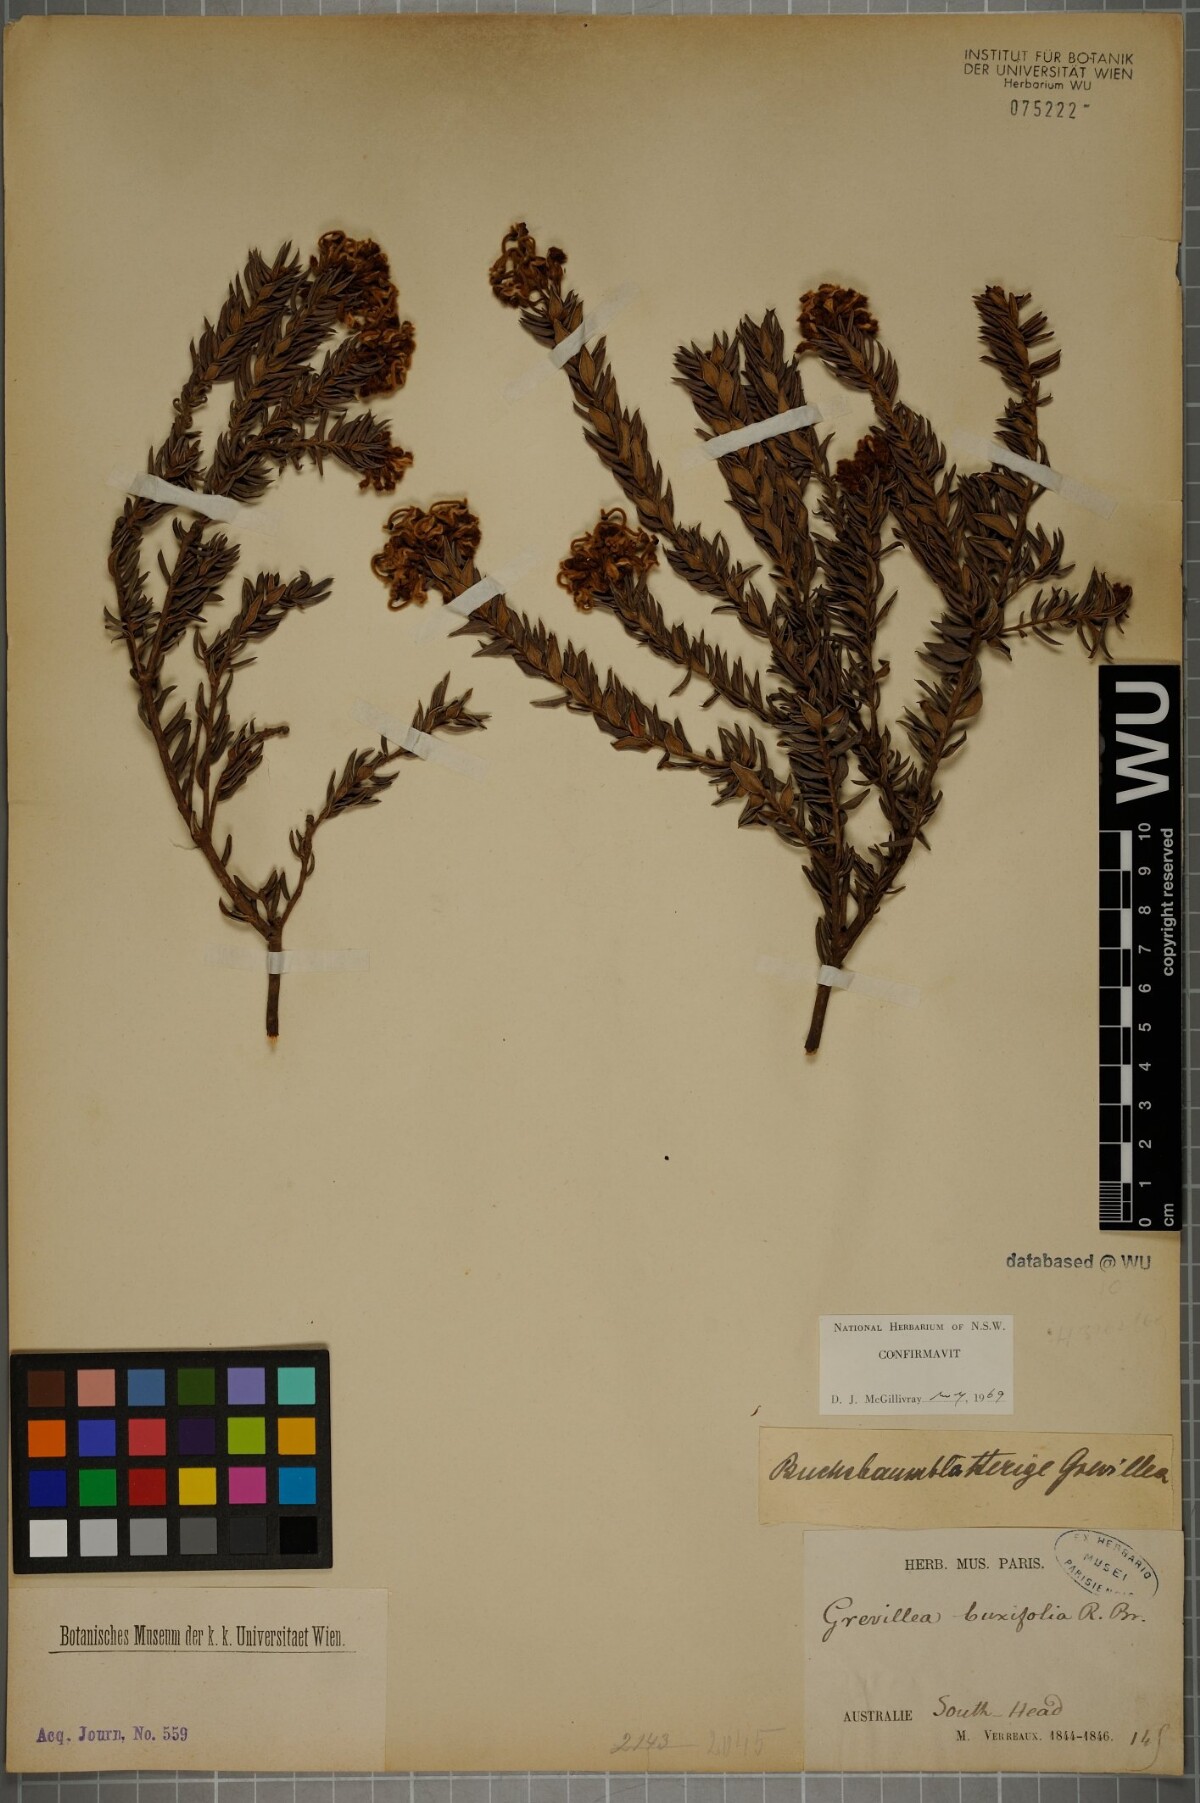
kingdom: Plantae
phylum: Tracheophyta
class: Magnoliopsida
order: Proteales
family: Proteaceae
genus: Grevillea
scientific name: Grevillea buxifolia
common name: Grey spiderflower
